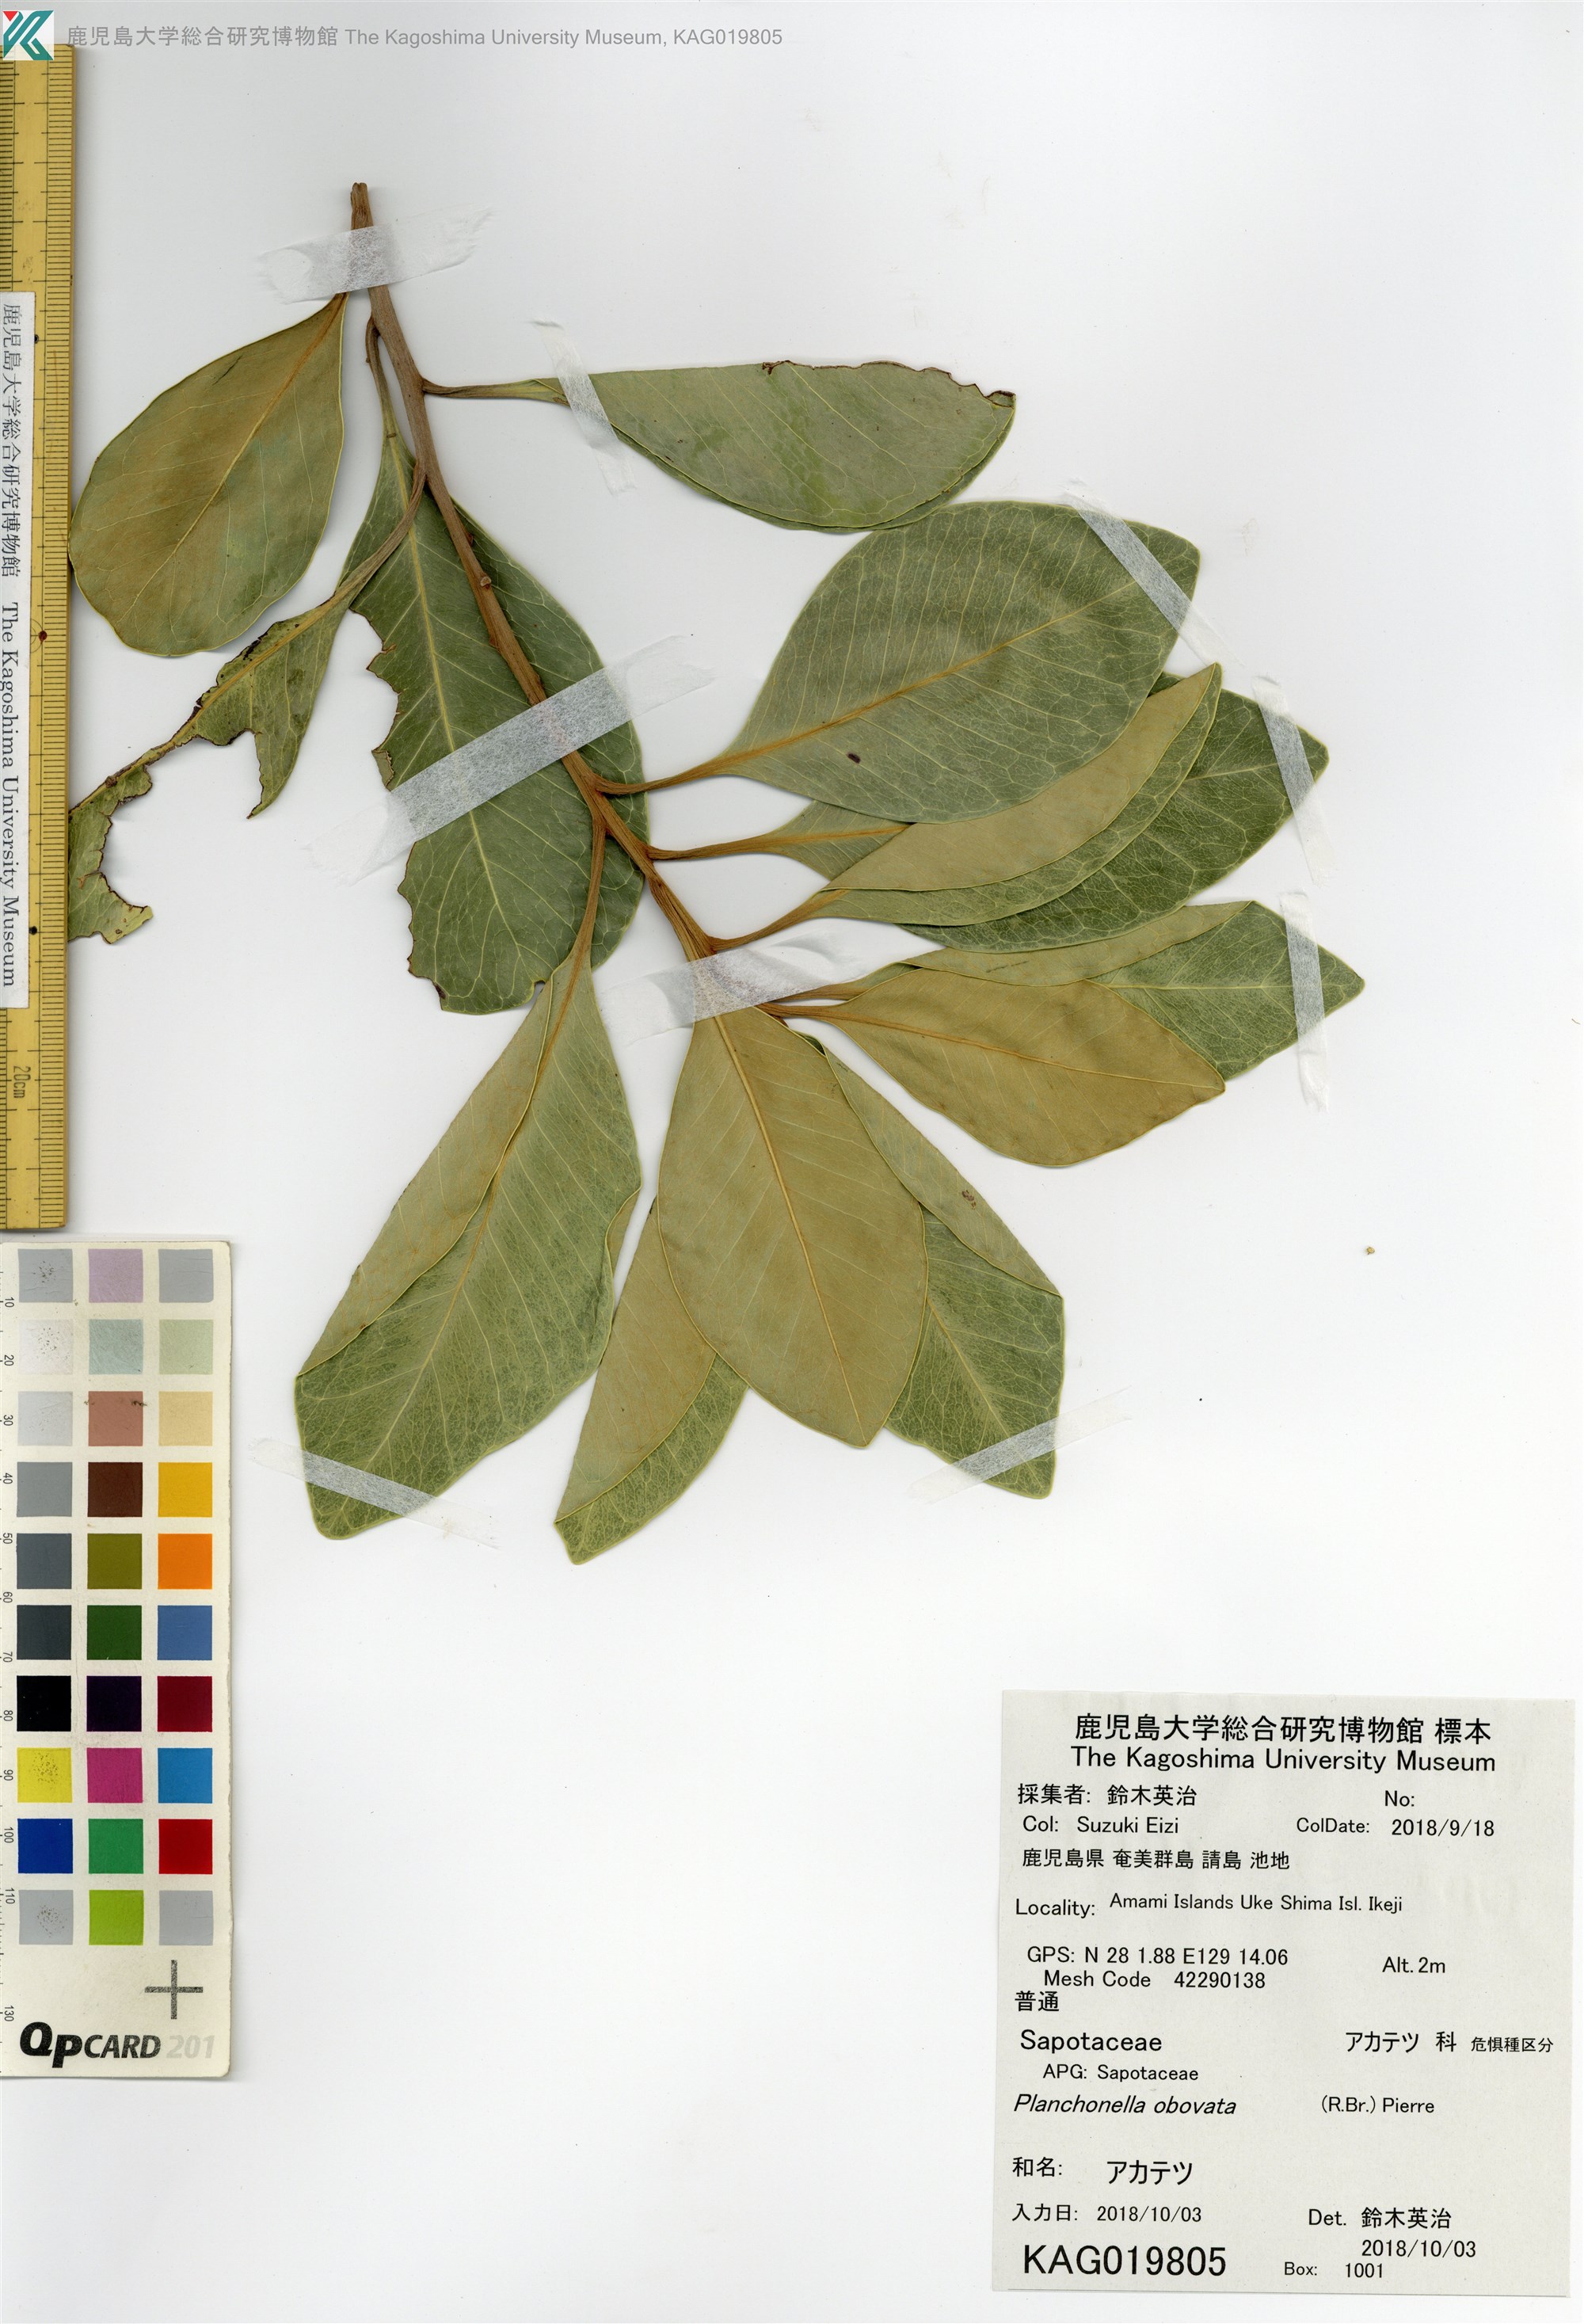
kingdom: Plantae
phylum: Tracheophyta
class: Magnoliopsida
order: Ericales
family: Sapotaceae
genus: Planchonella
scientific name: Planchonella obovata
